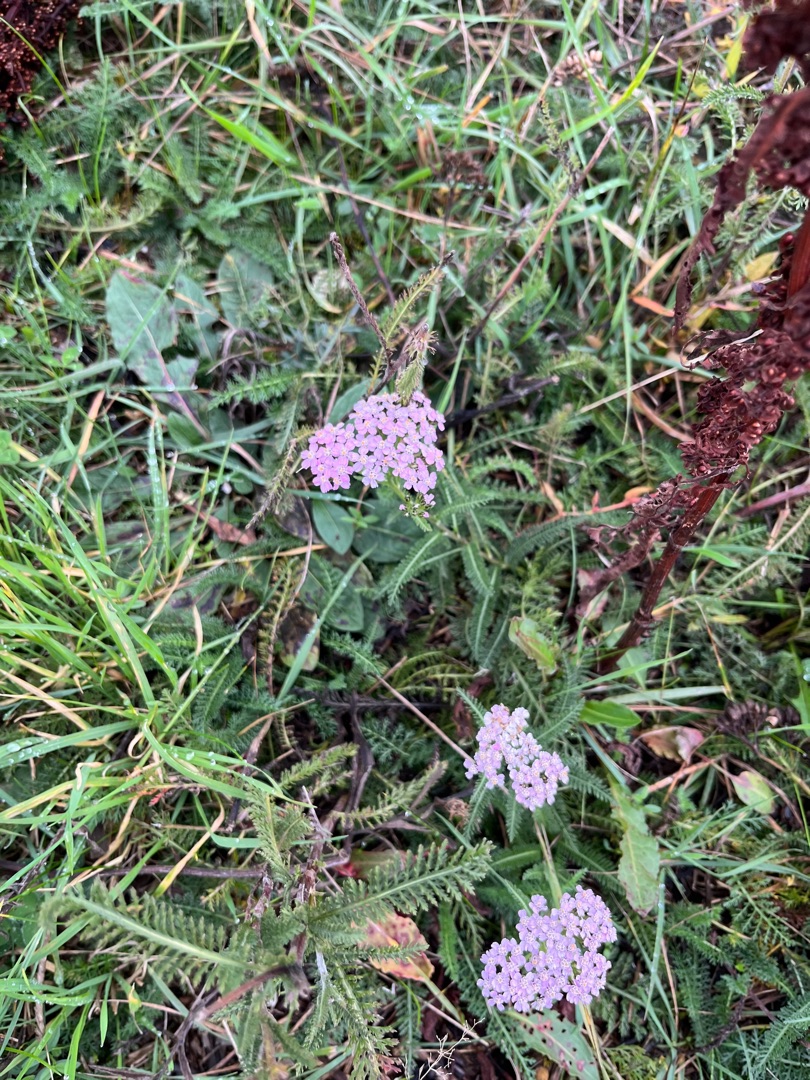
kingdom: Plantae
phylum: Tracheophyta
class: Magnoliopsida
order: Asterales
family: Asteraceae
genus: Achillea
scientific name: Achillea millefolium
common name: Almindelig røllike
